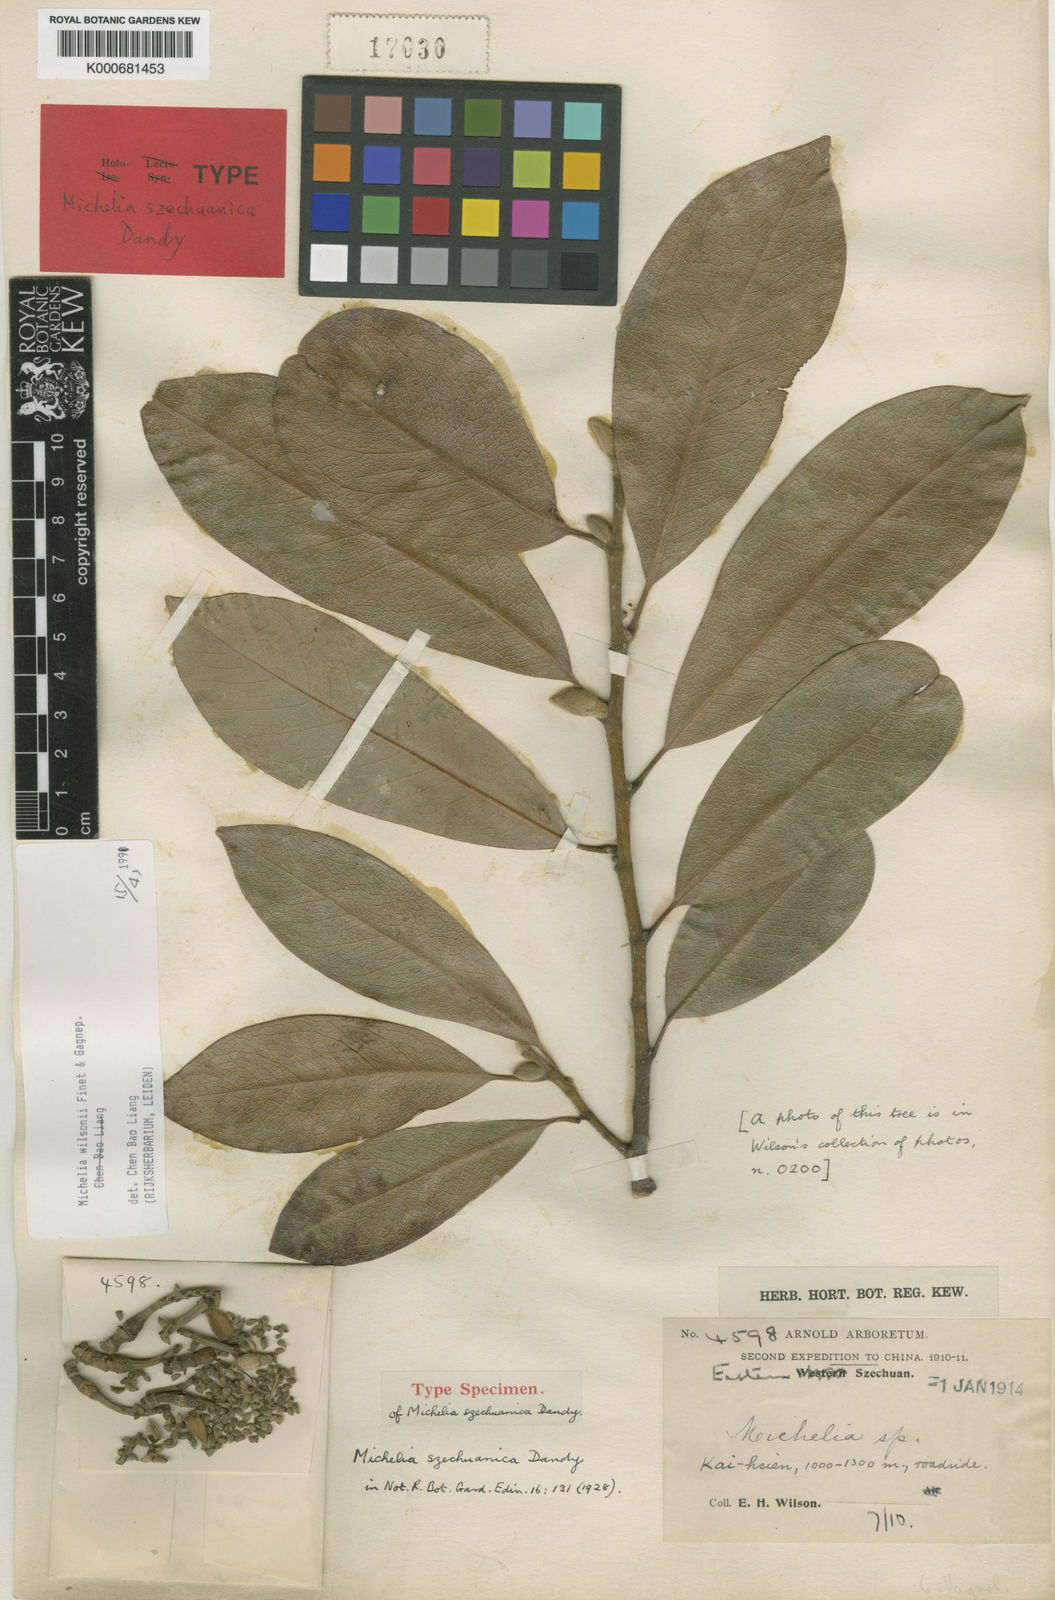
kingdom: Plantae
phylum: Tracheophyta
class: Magnoliopsida
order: Magnoliales
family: Magnoliaceae
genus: Magnolia
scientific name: Magnolia ernestii
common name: Yellow lily-tree
